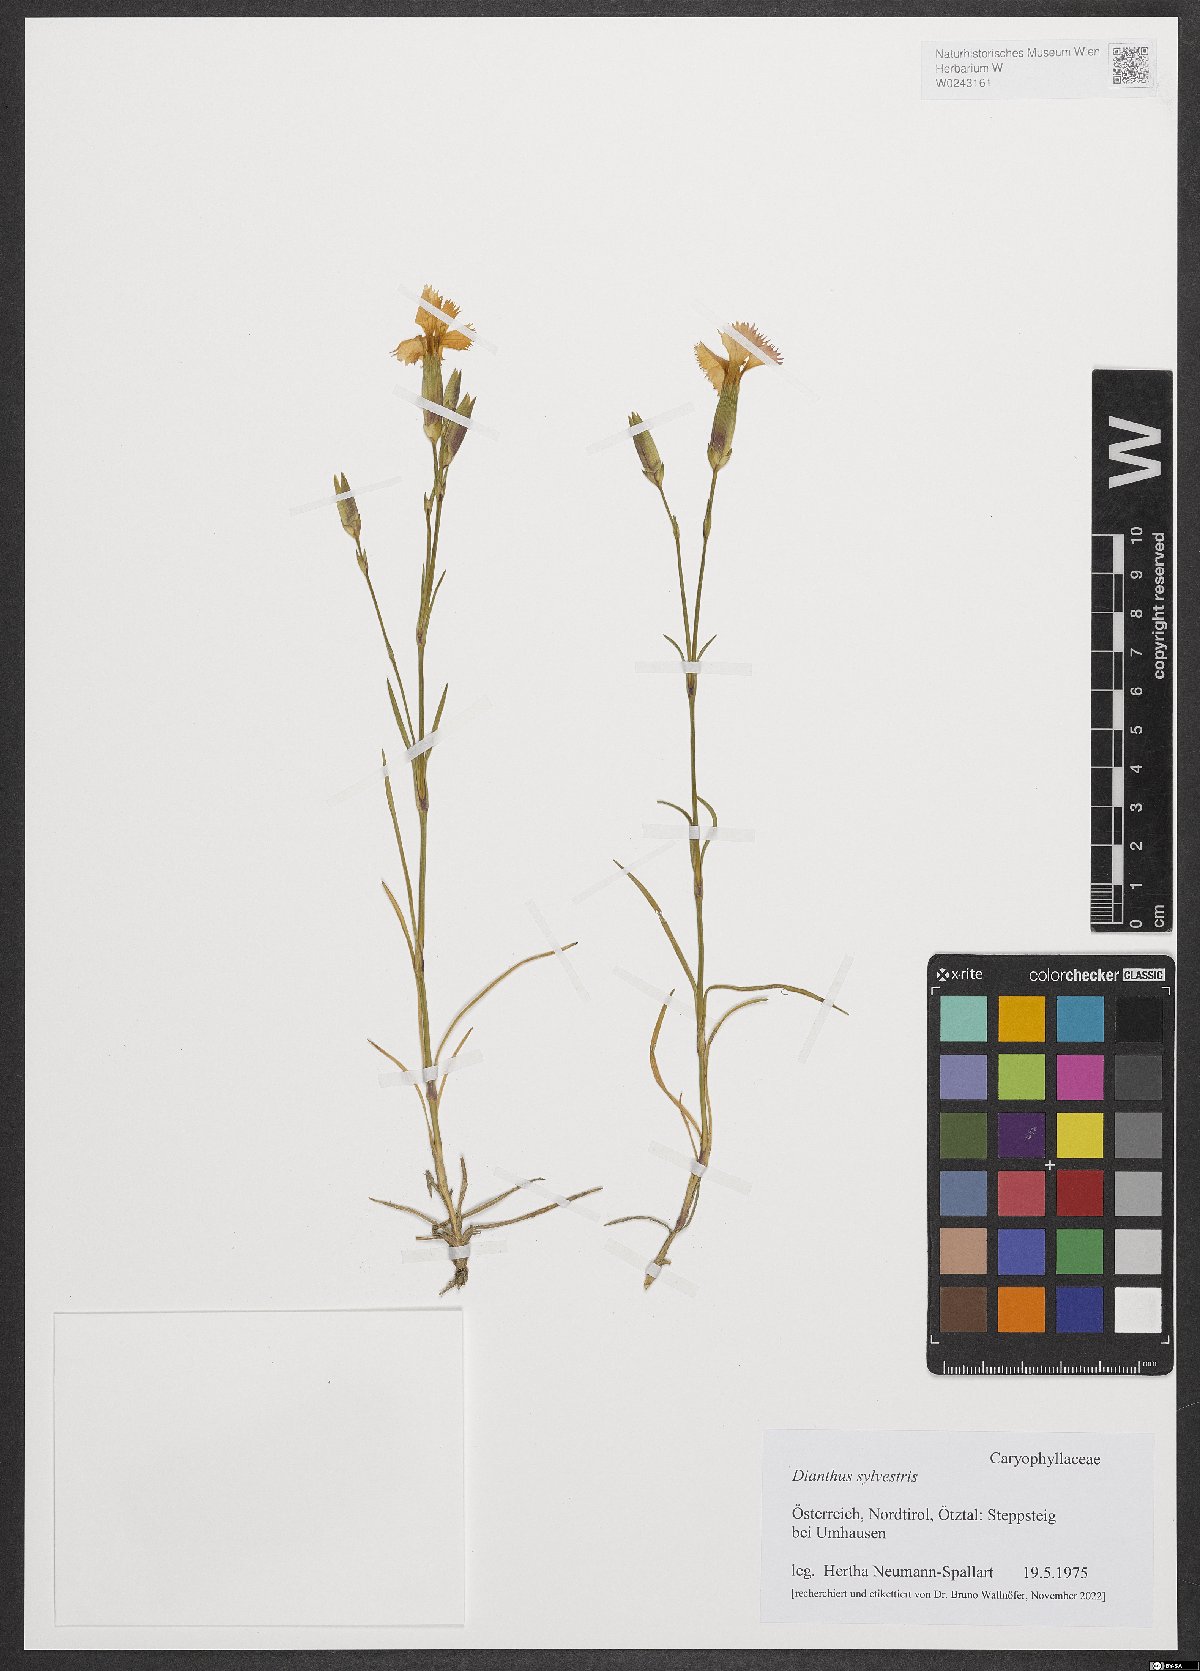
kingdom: Plantae
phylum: Tracheophyta
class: Magnoliopsida
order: Caryophyllales
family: Caryophyllaceae
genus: Dianthus
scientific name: Dianthus sylvestris
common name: Wood pink
